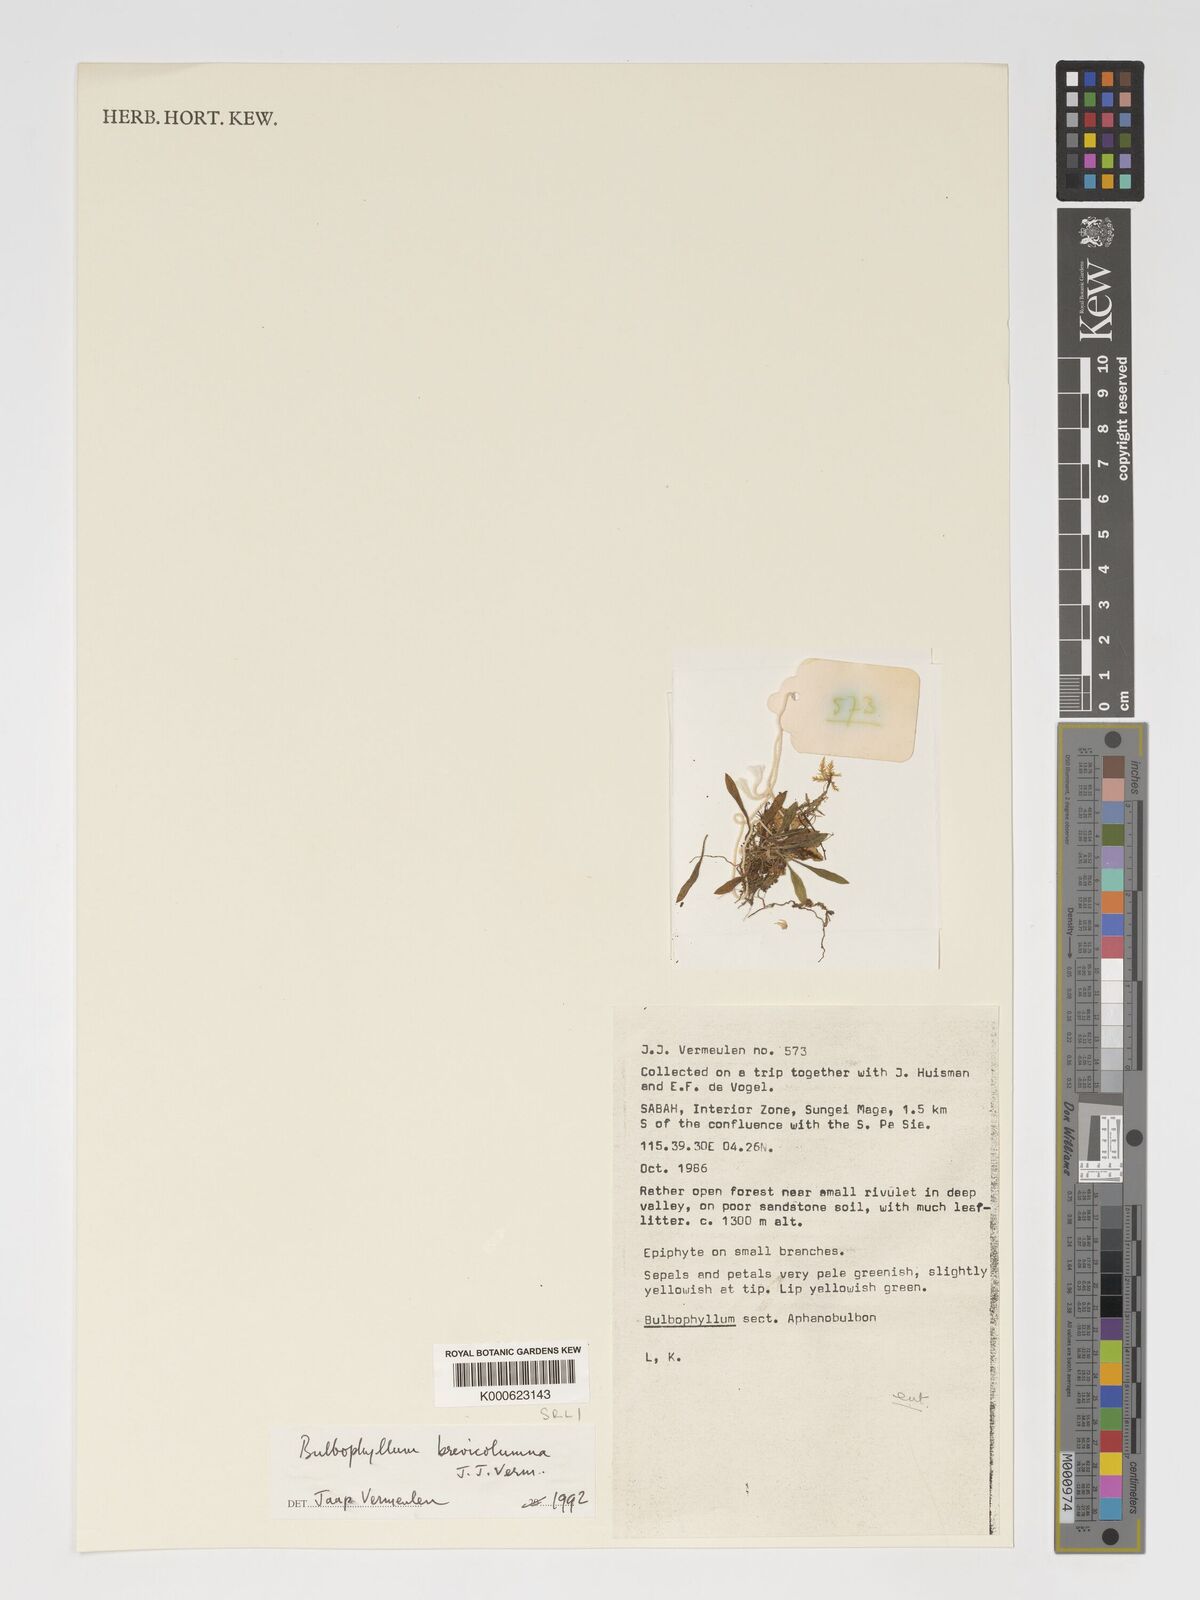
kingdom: Plantae
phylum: Tracheophyta
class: Liliopsida
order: Asparagales
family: Orchidaceae
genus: Bulbophyllum
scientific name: Bulbophyllum brevicolumna
